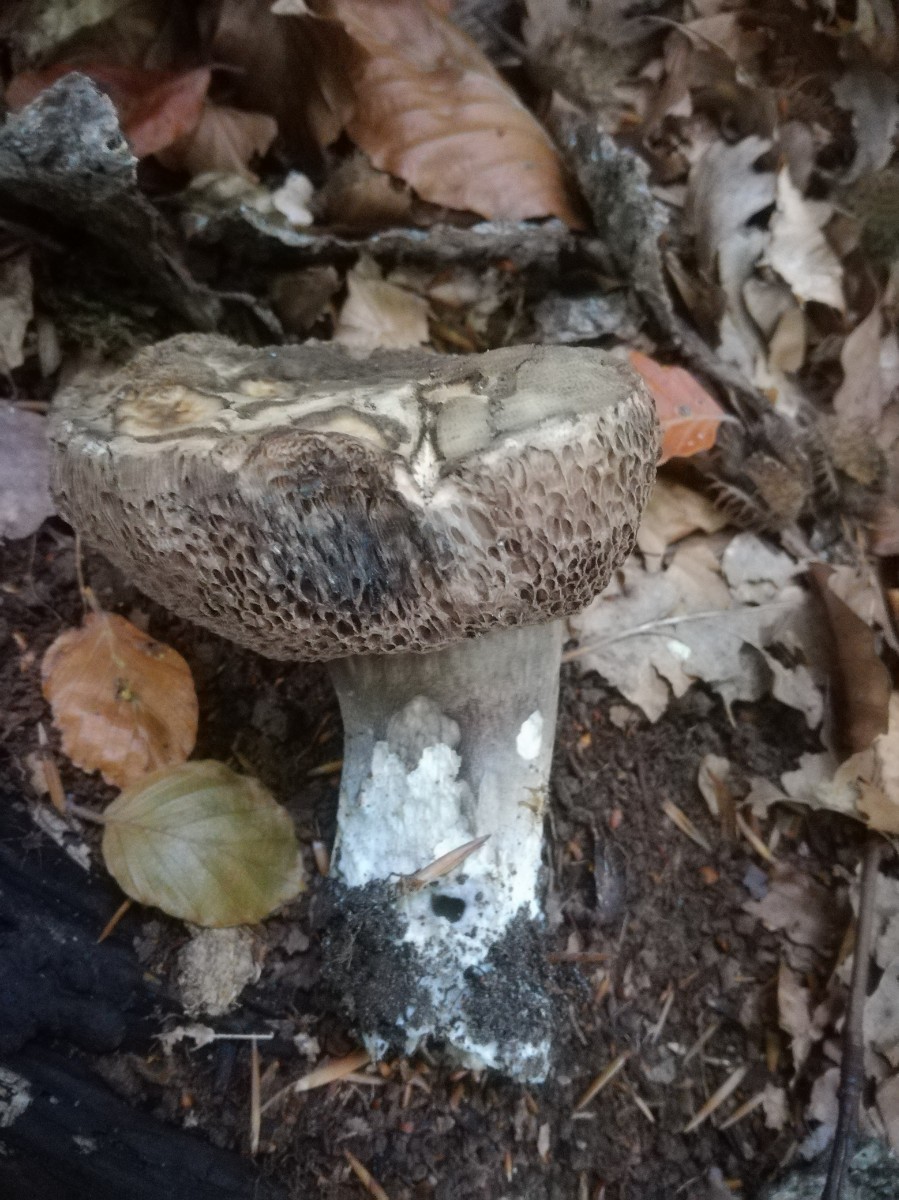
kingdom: Fungi
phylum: Basidiomycota
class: Agaricomycetes
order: Boletales
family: Boletaceae
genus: Porphyrellus
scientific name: Porphyrellus porphyrosporus
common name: sodrørhat
